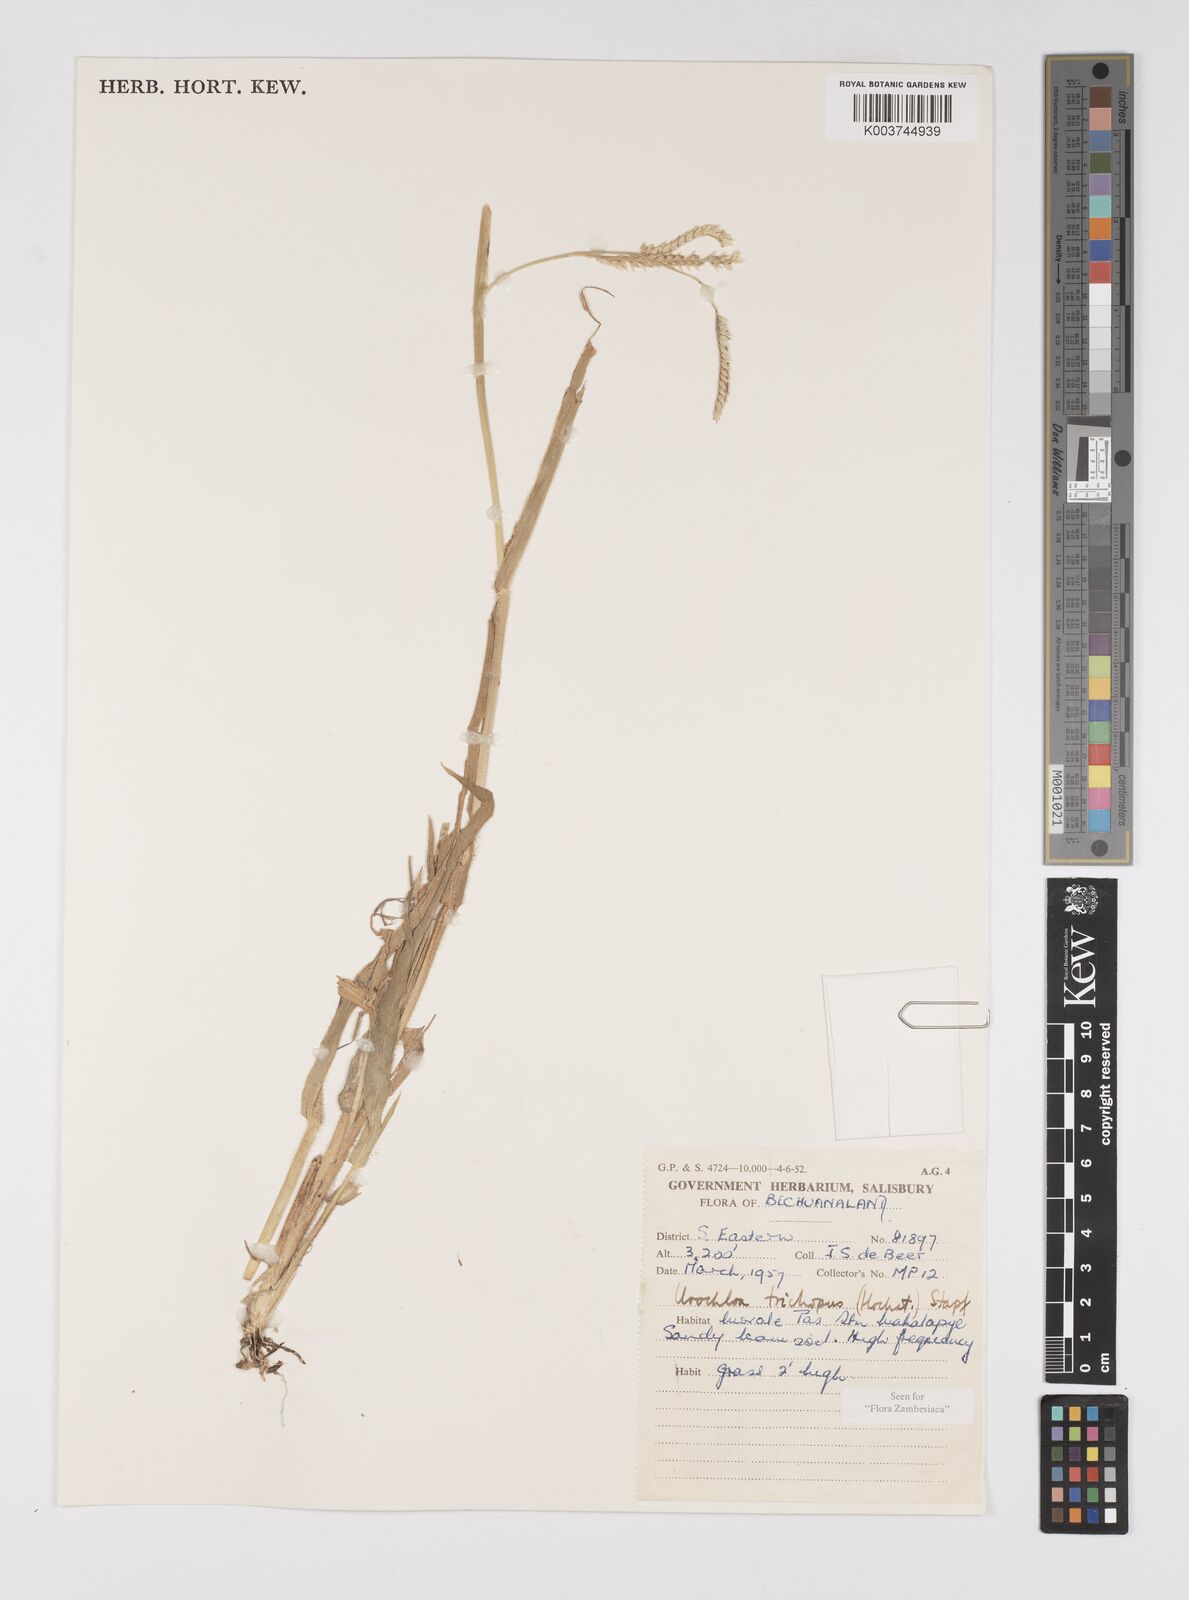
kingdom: Plantae
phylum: Tracheophyta
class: Liliopsida
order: Poales
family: Poaceae
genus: Urochloa
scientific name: Urochloa trichopus
